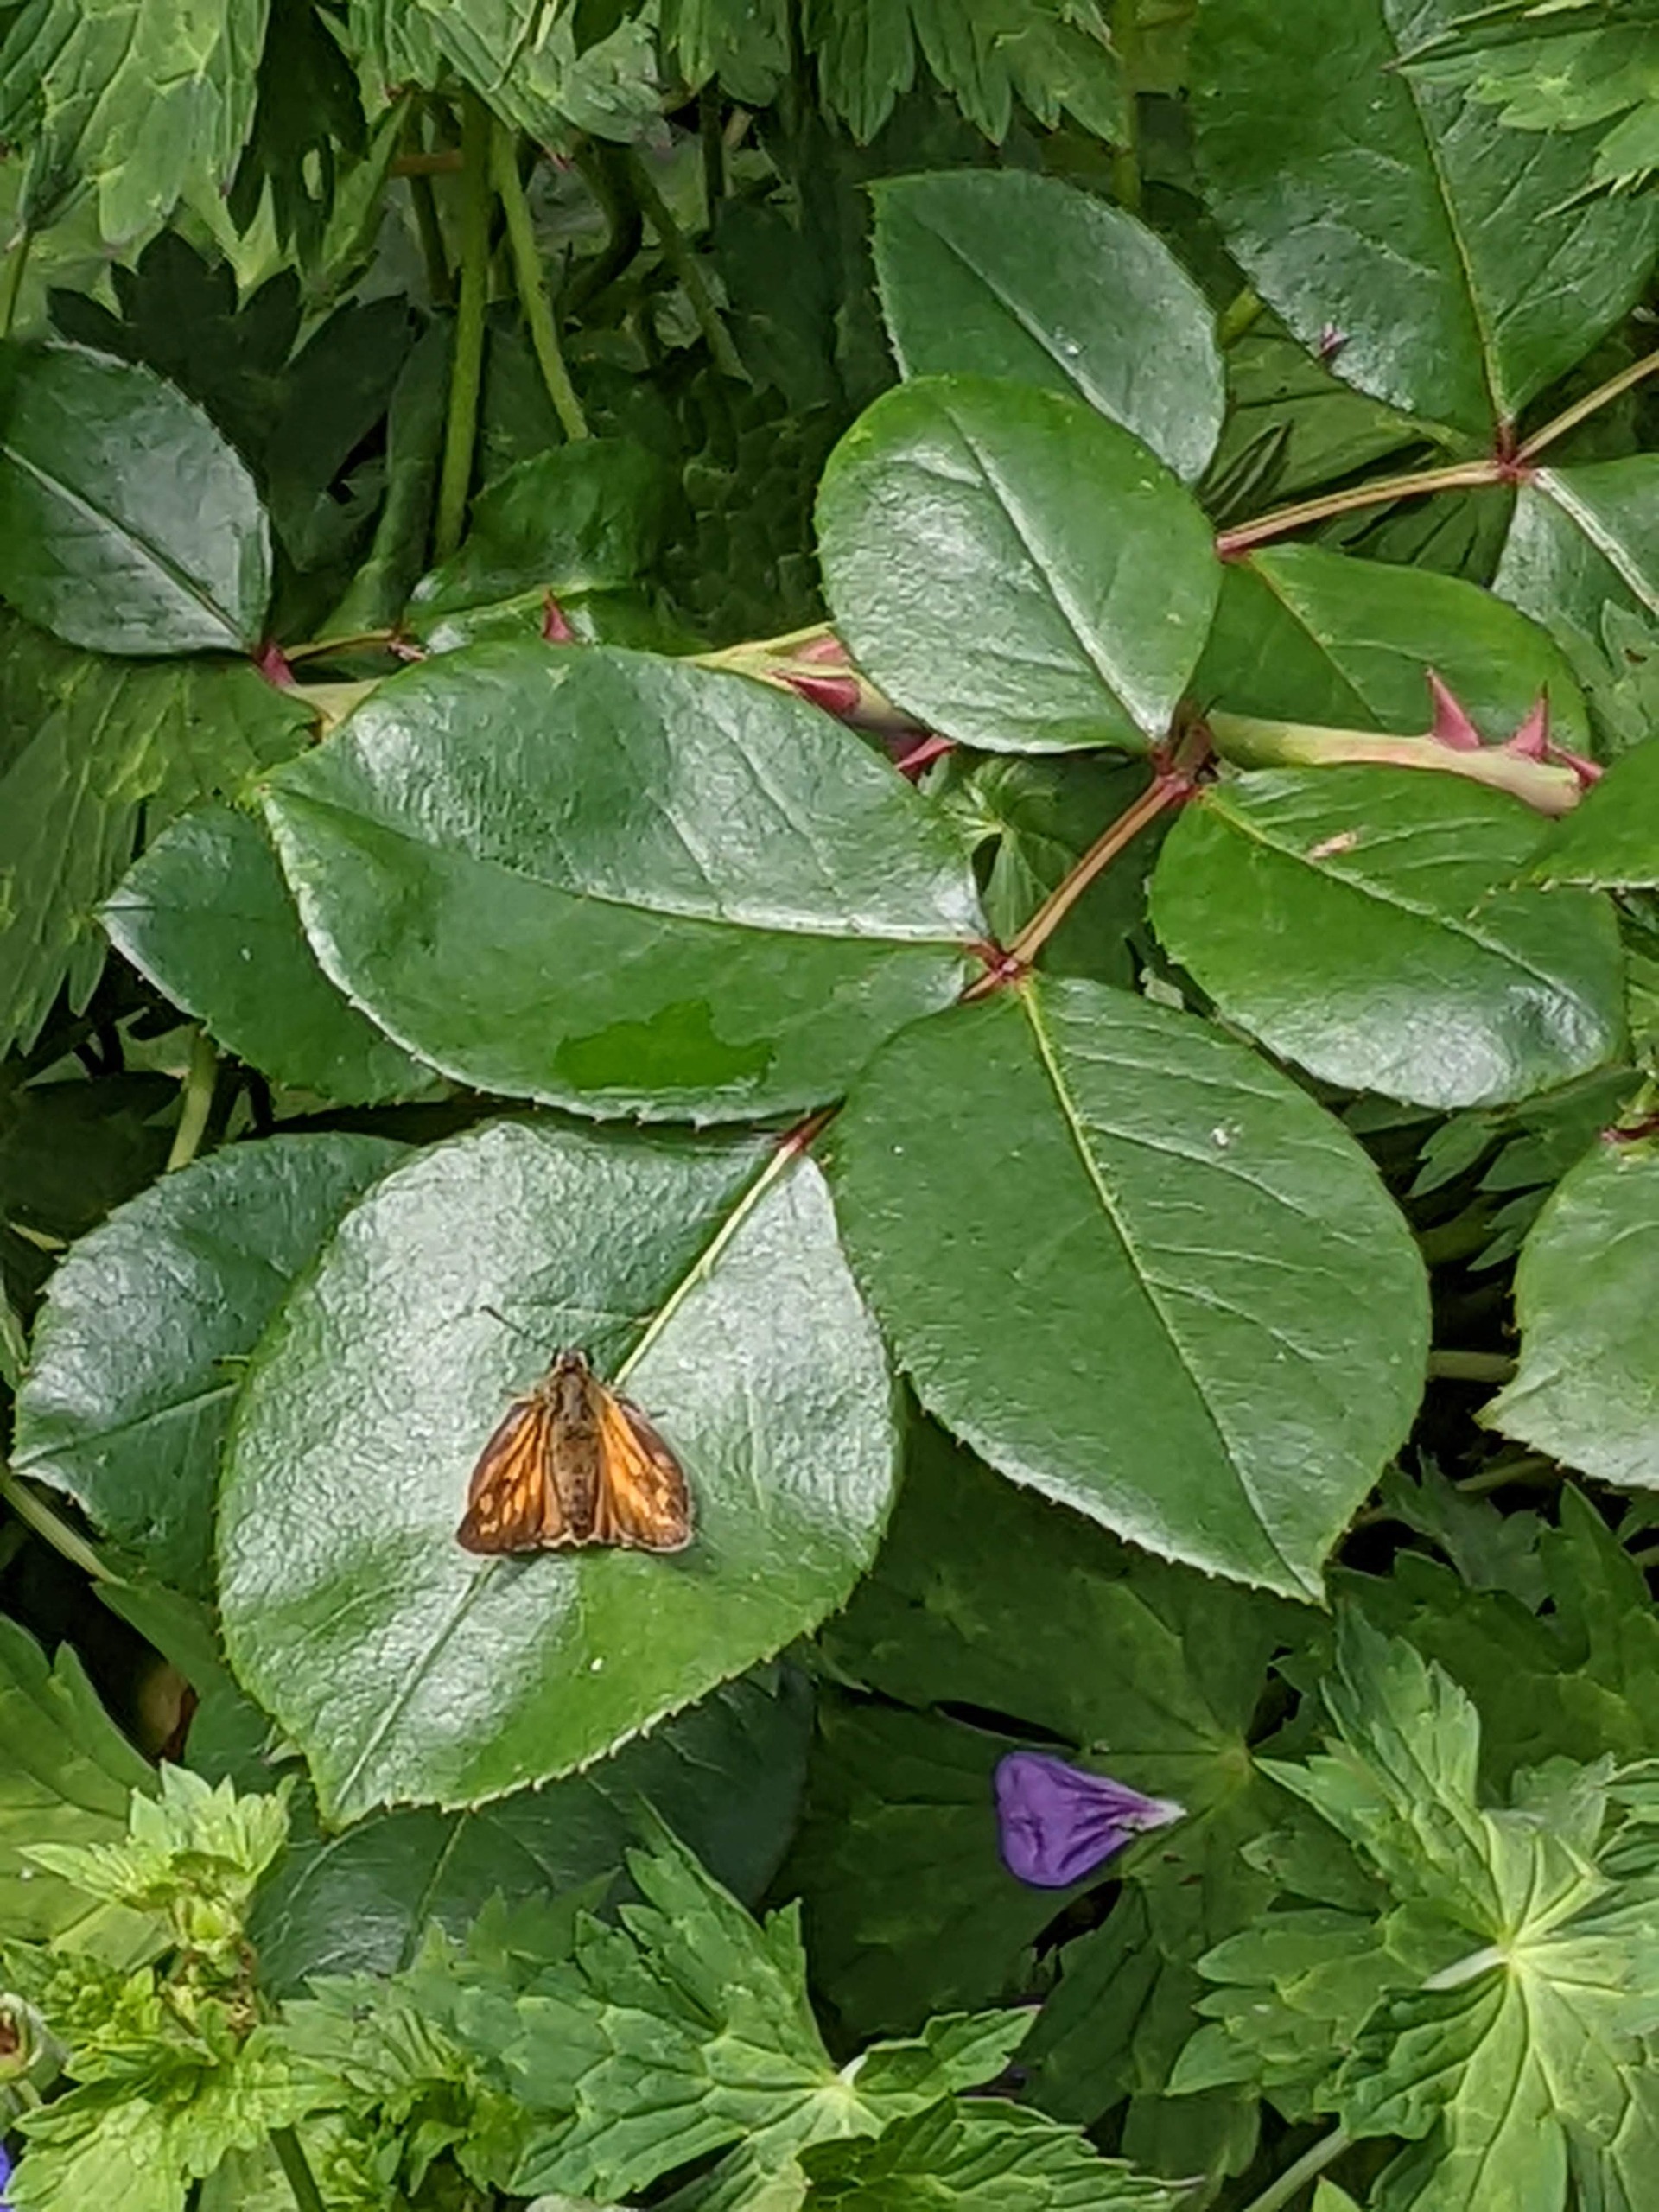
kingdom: Animalia
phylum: Arthropoda
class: Insecta
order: Lepidoptera
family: Hesperiidae
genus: Ochlodes
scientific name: Ochlodes venata
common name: Stor bredpande
